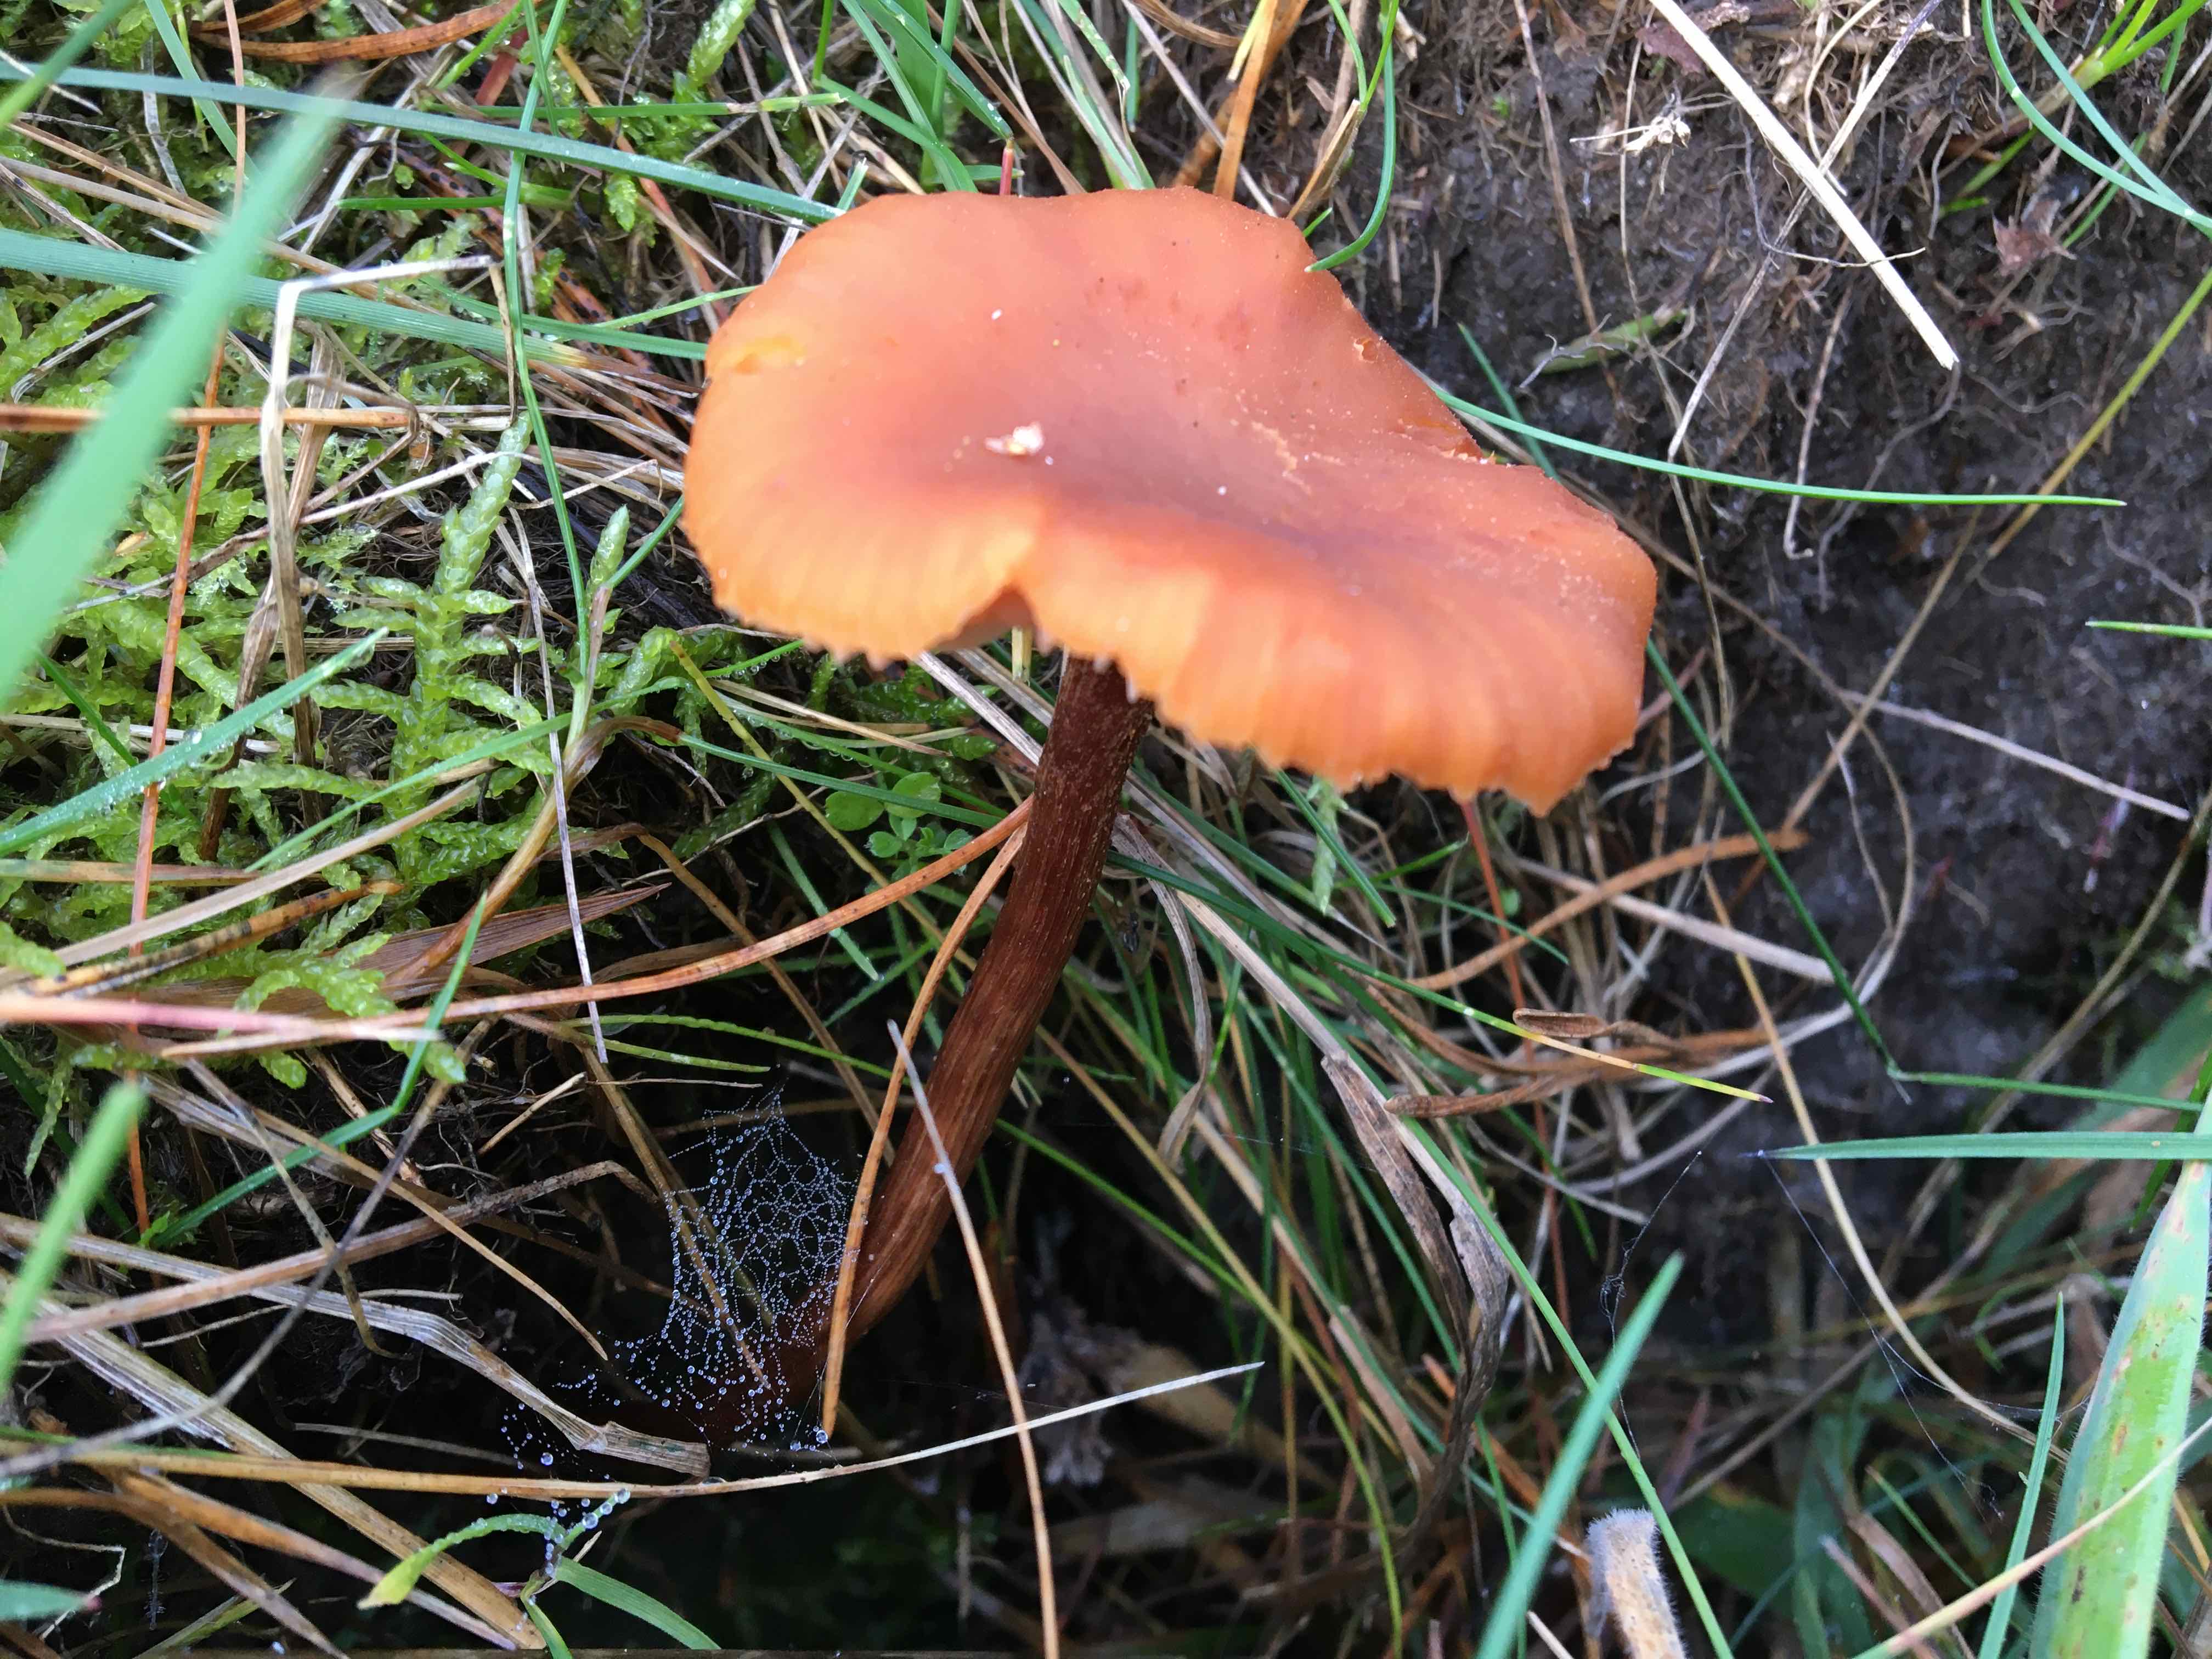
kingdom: Fungi
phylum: Basidiomycota
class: Agaricomycetes
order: Agaricales
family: Hydnangiaceae
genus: Laccaria
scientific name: Laccaria
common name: ametysthat
